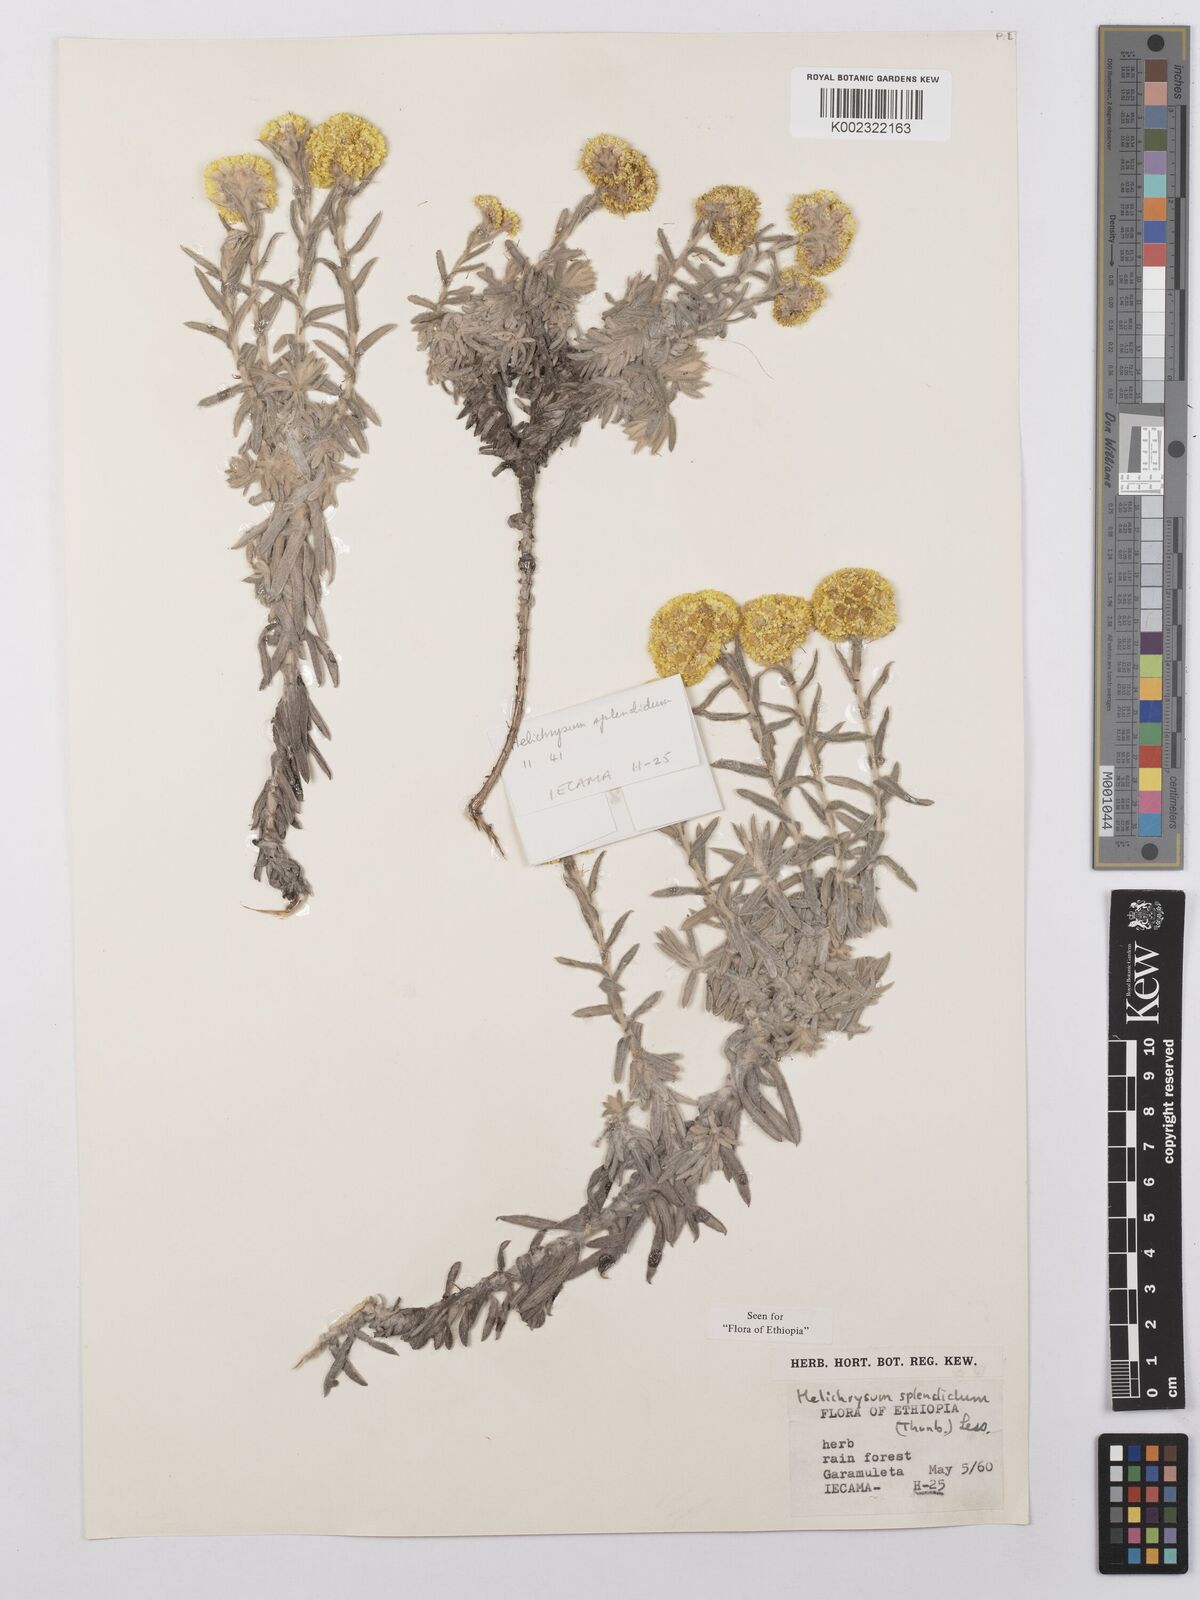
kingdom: Plantae
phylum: Tracheophyta
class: Magnoliopsida
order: Asterales
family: Asteraceae
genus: Helichrysum
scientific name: Helichrysum splendidum
